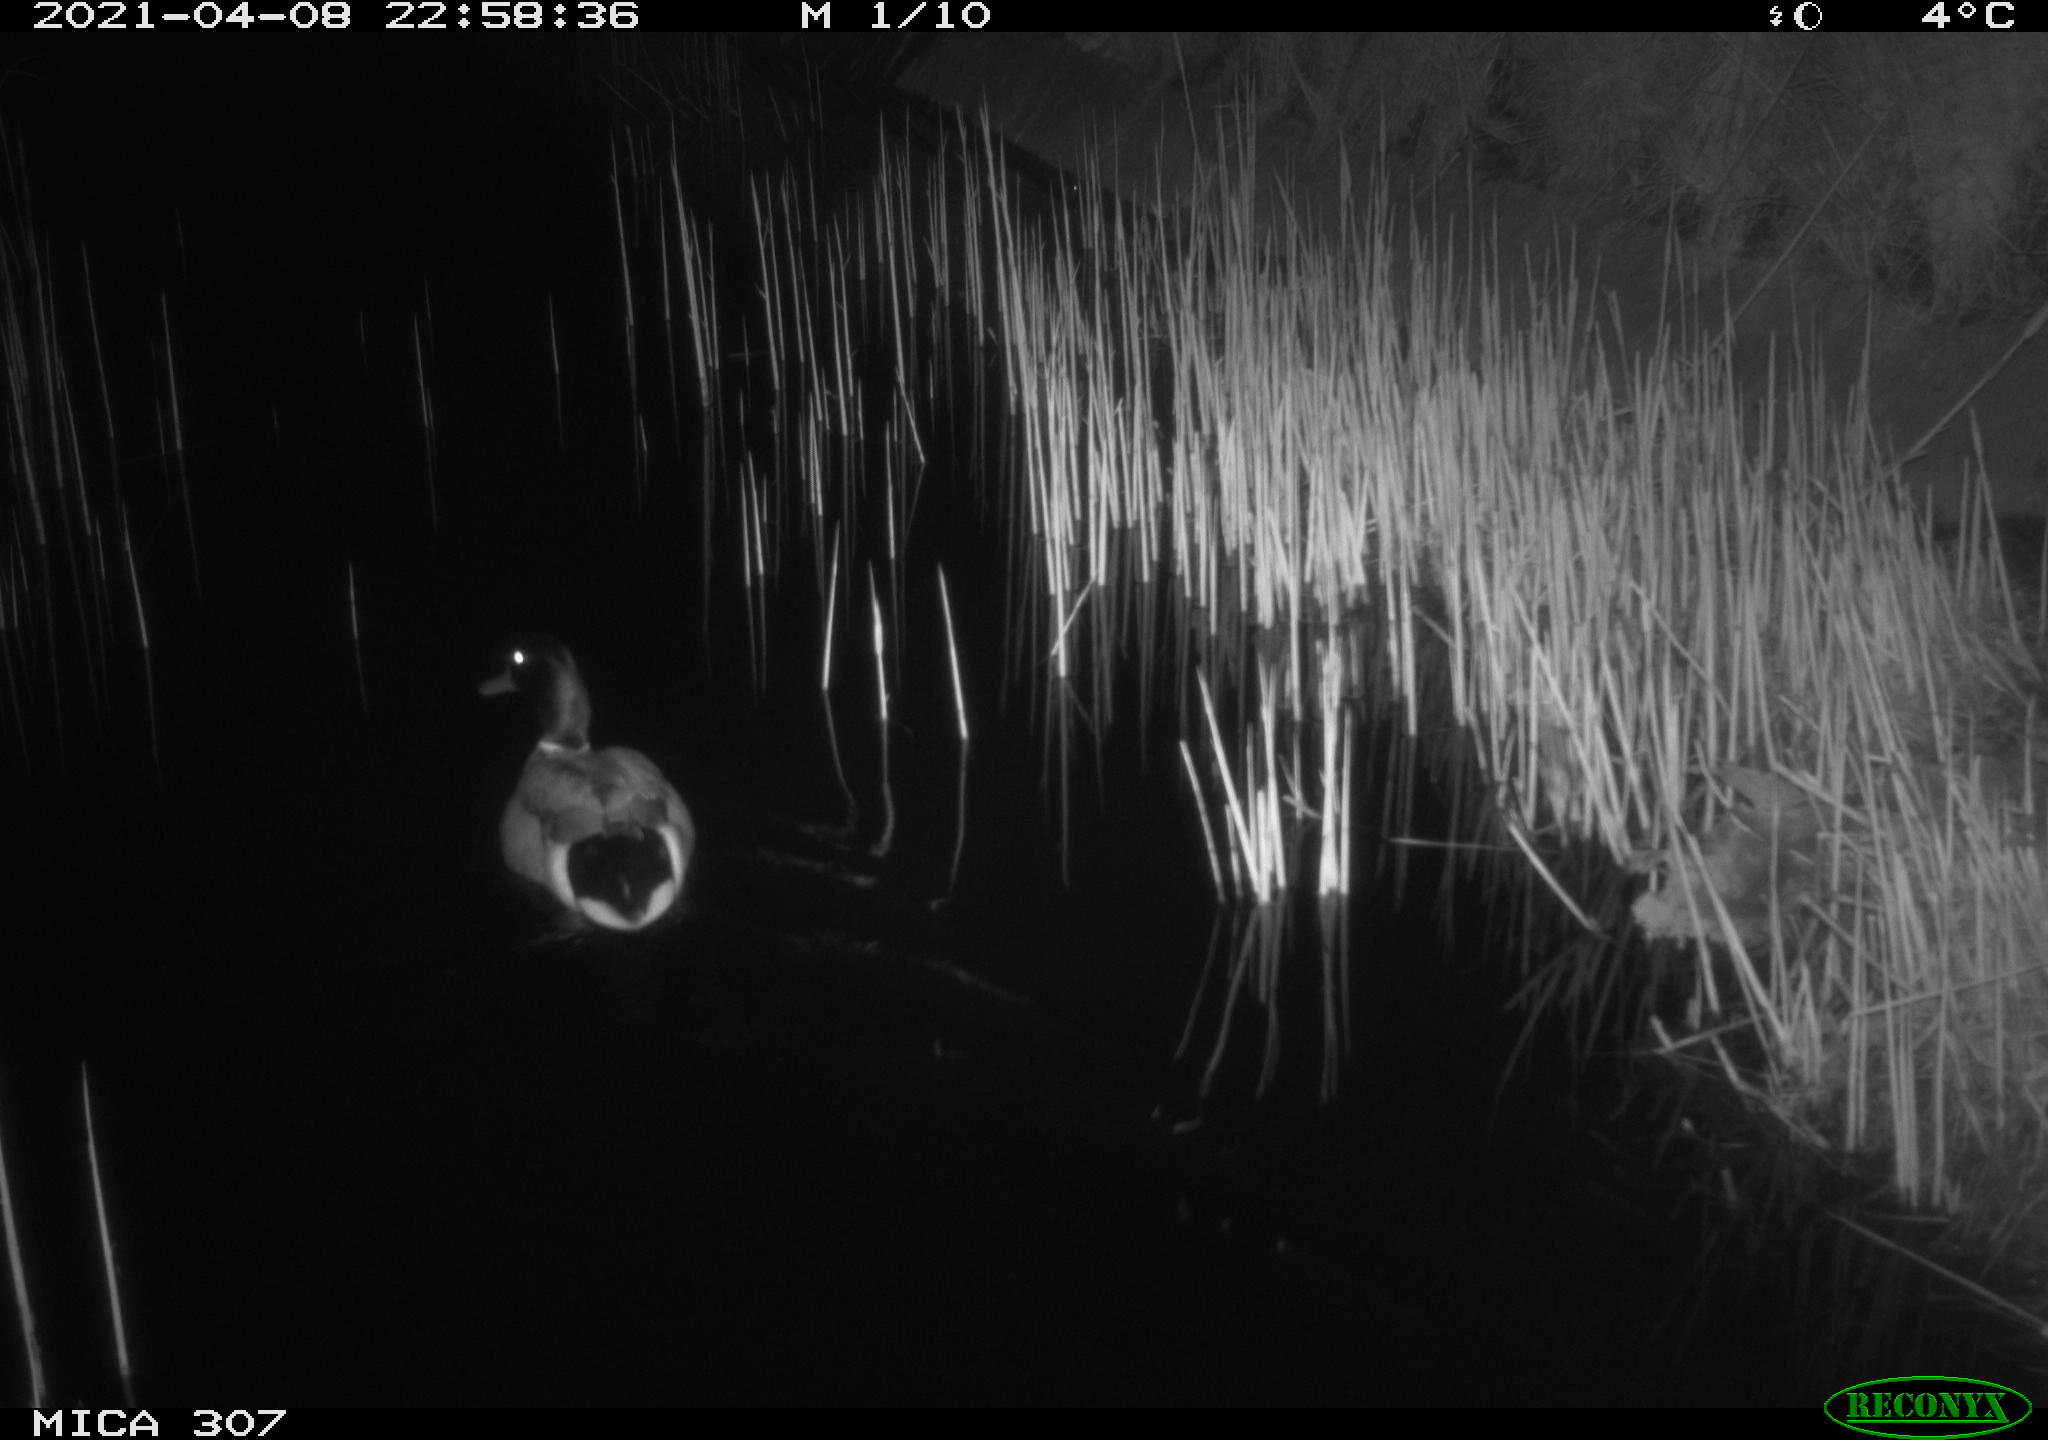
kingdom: Animalia
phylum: Chordata
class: Aves
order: Anseriformes
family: Anatidae
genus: Anas
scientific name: Anas platyrhynchos
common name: Mallard
